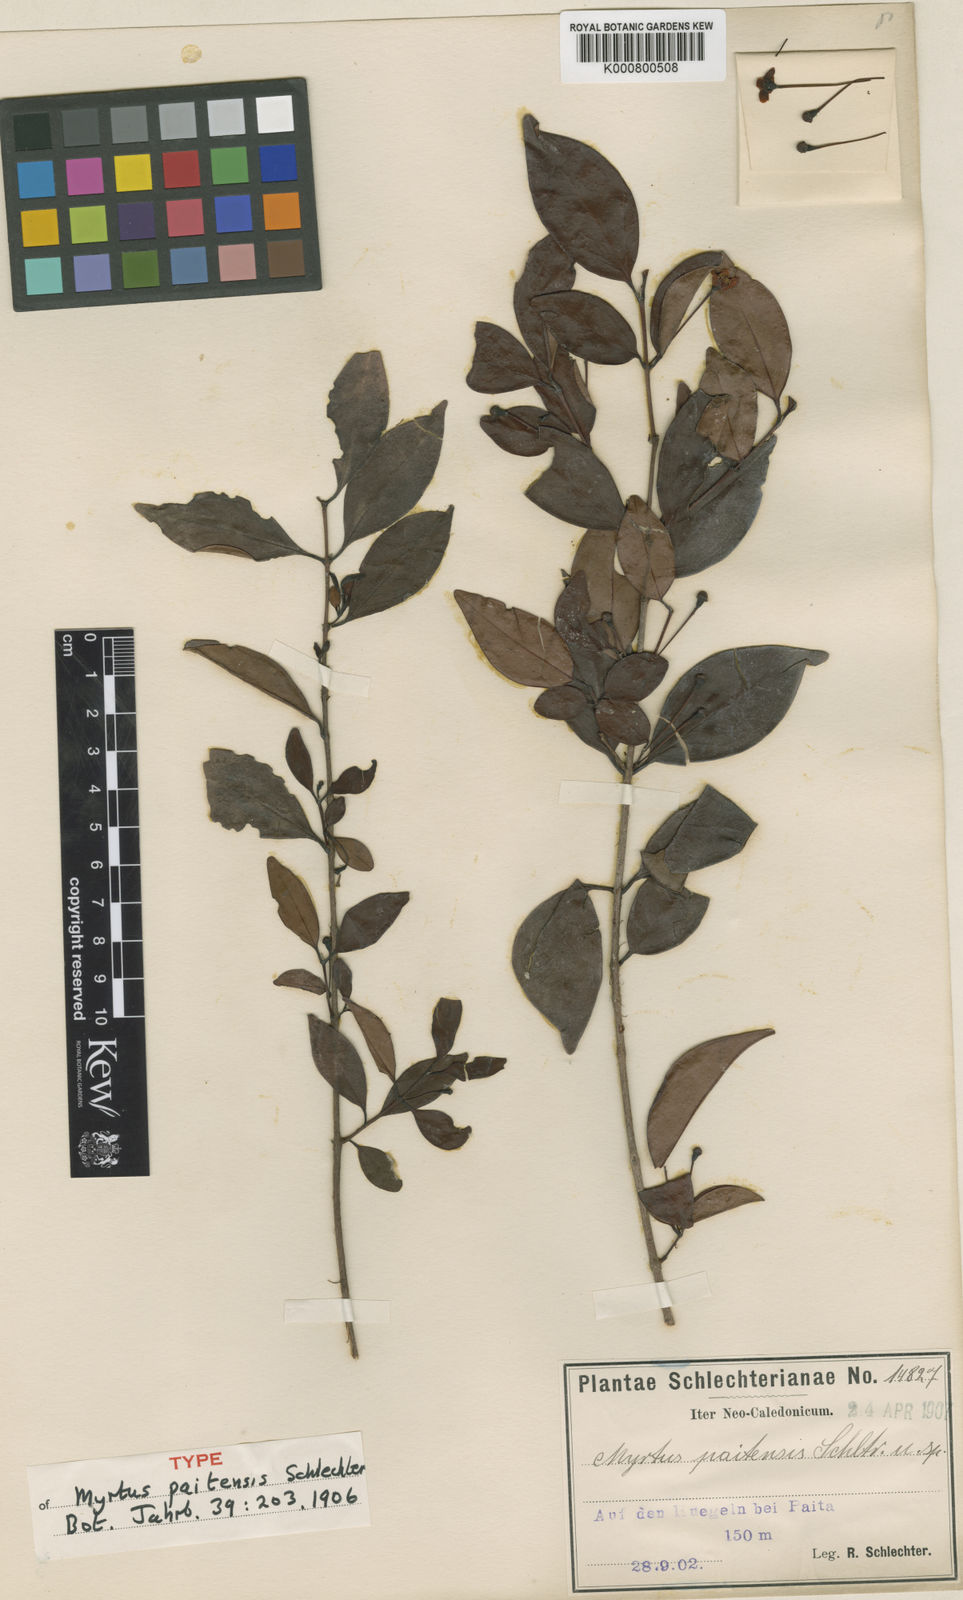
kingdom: Plantae
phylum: Tracheophyta
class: Magnoliopsida
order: Myrtales
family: Myrtaceae
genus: Archirhodomyrtus
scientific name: Archirhodomyrtus paitensis
